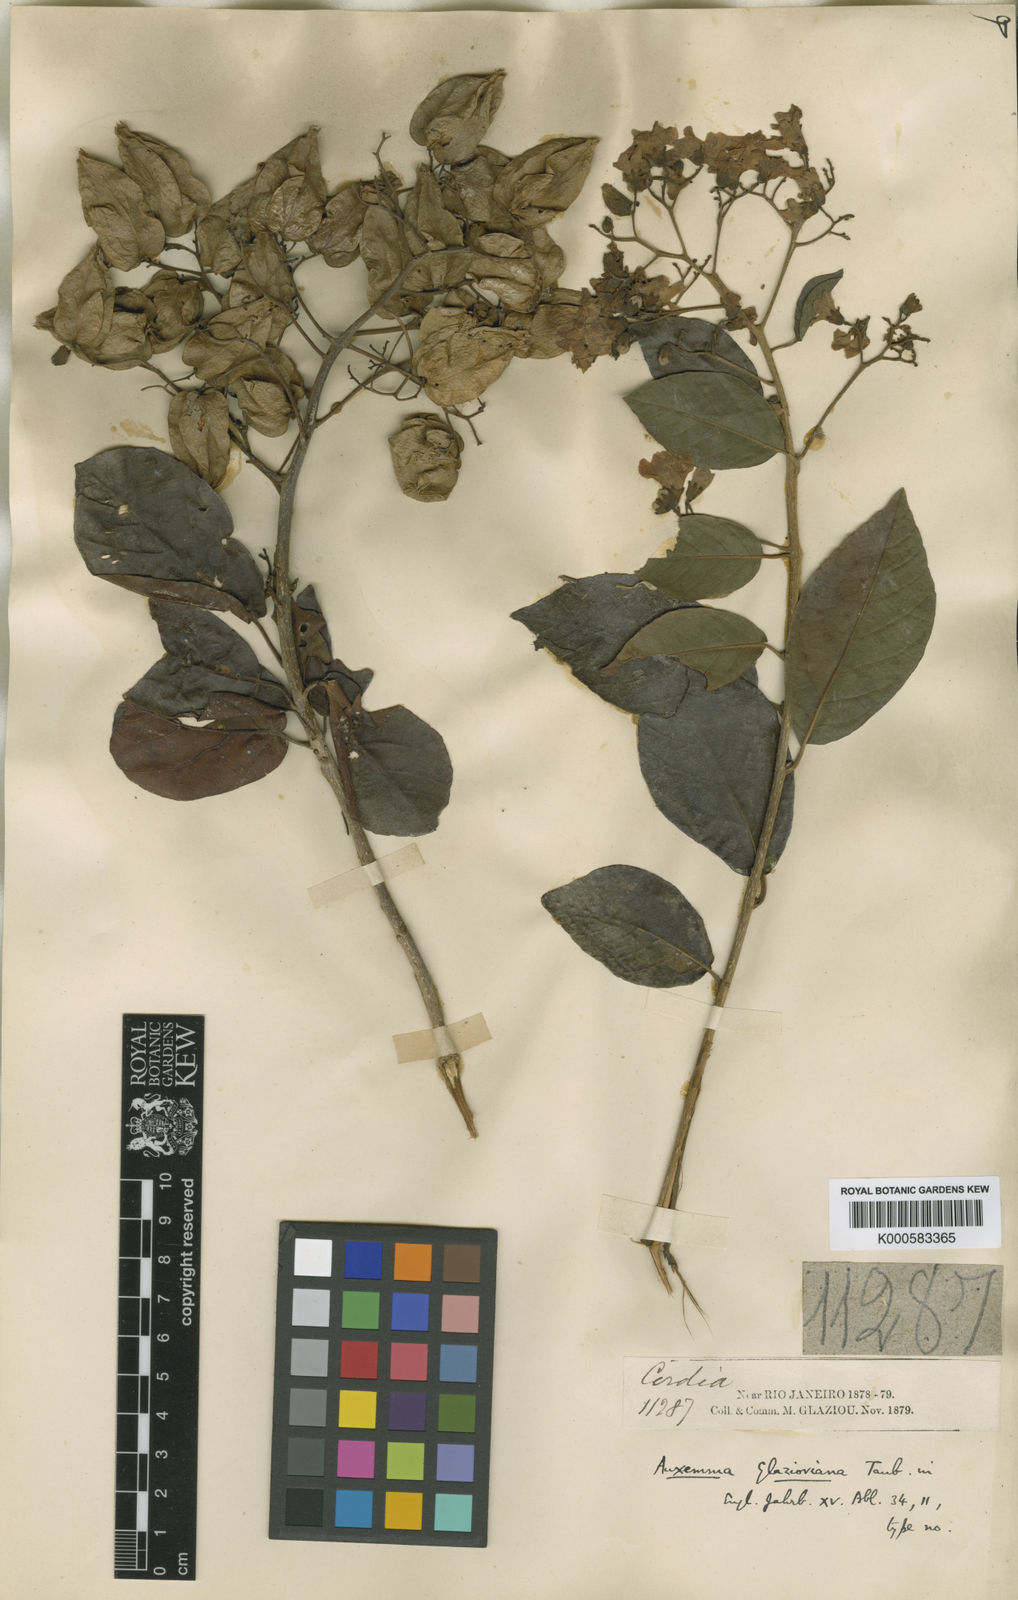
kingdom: Plantae
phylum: Tracheophyta
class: Magnoliopsida
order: Boraginales
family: Cordiaceae
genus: Cordia
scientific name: Cordia glazioviana
